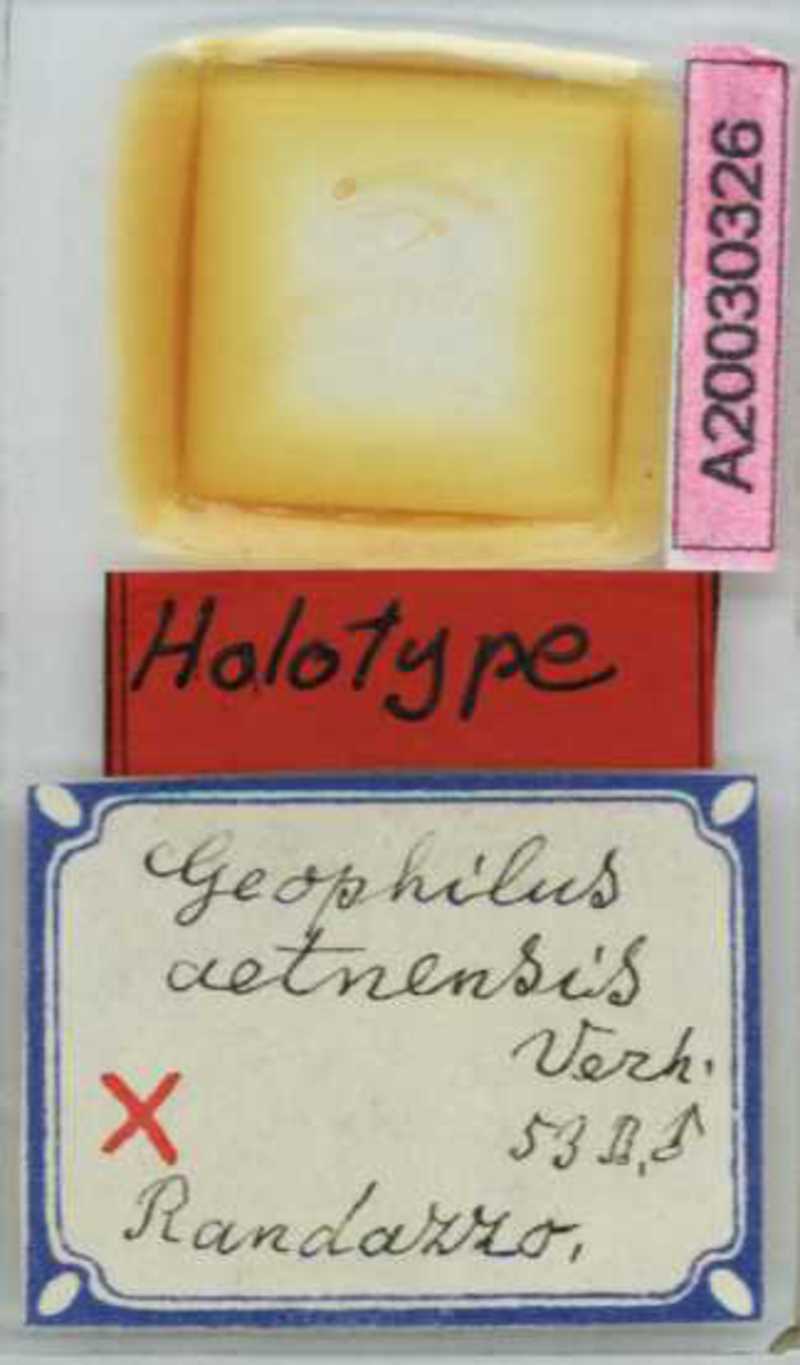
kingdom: Animalia
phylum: Arthropoda
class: Chilopoda
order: Geophilomorpha
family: Geophilidae
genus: Geophilus
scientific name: Geophilus gavoyi
